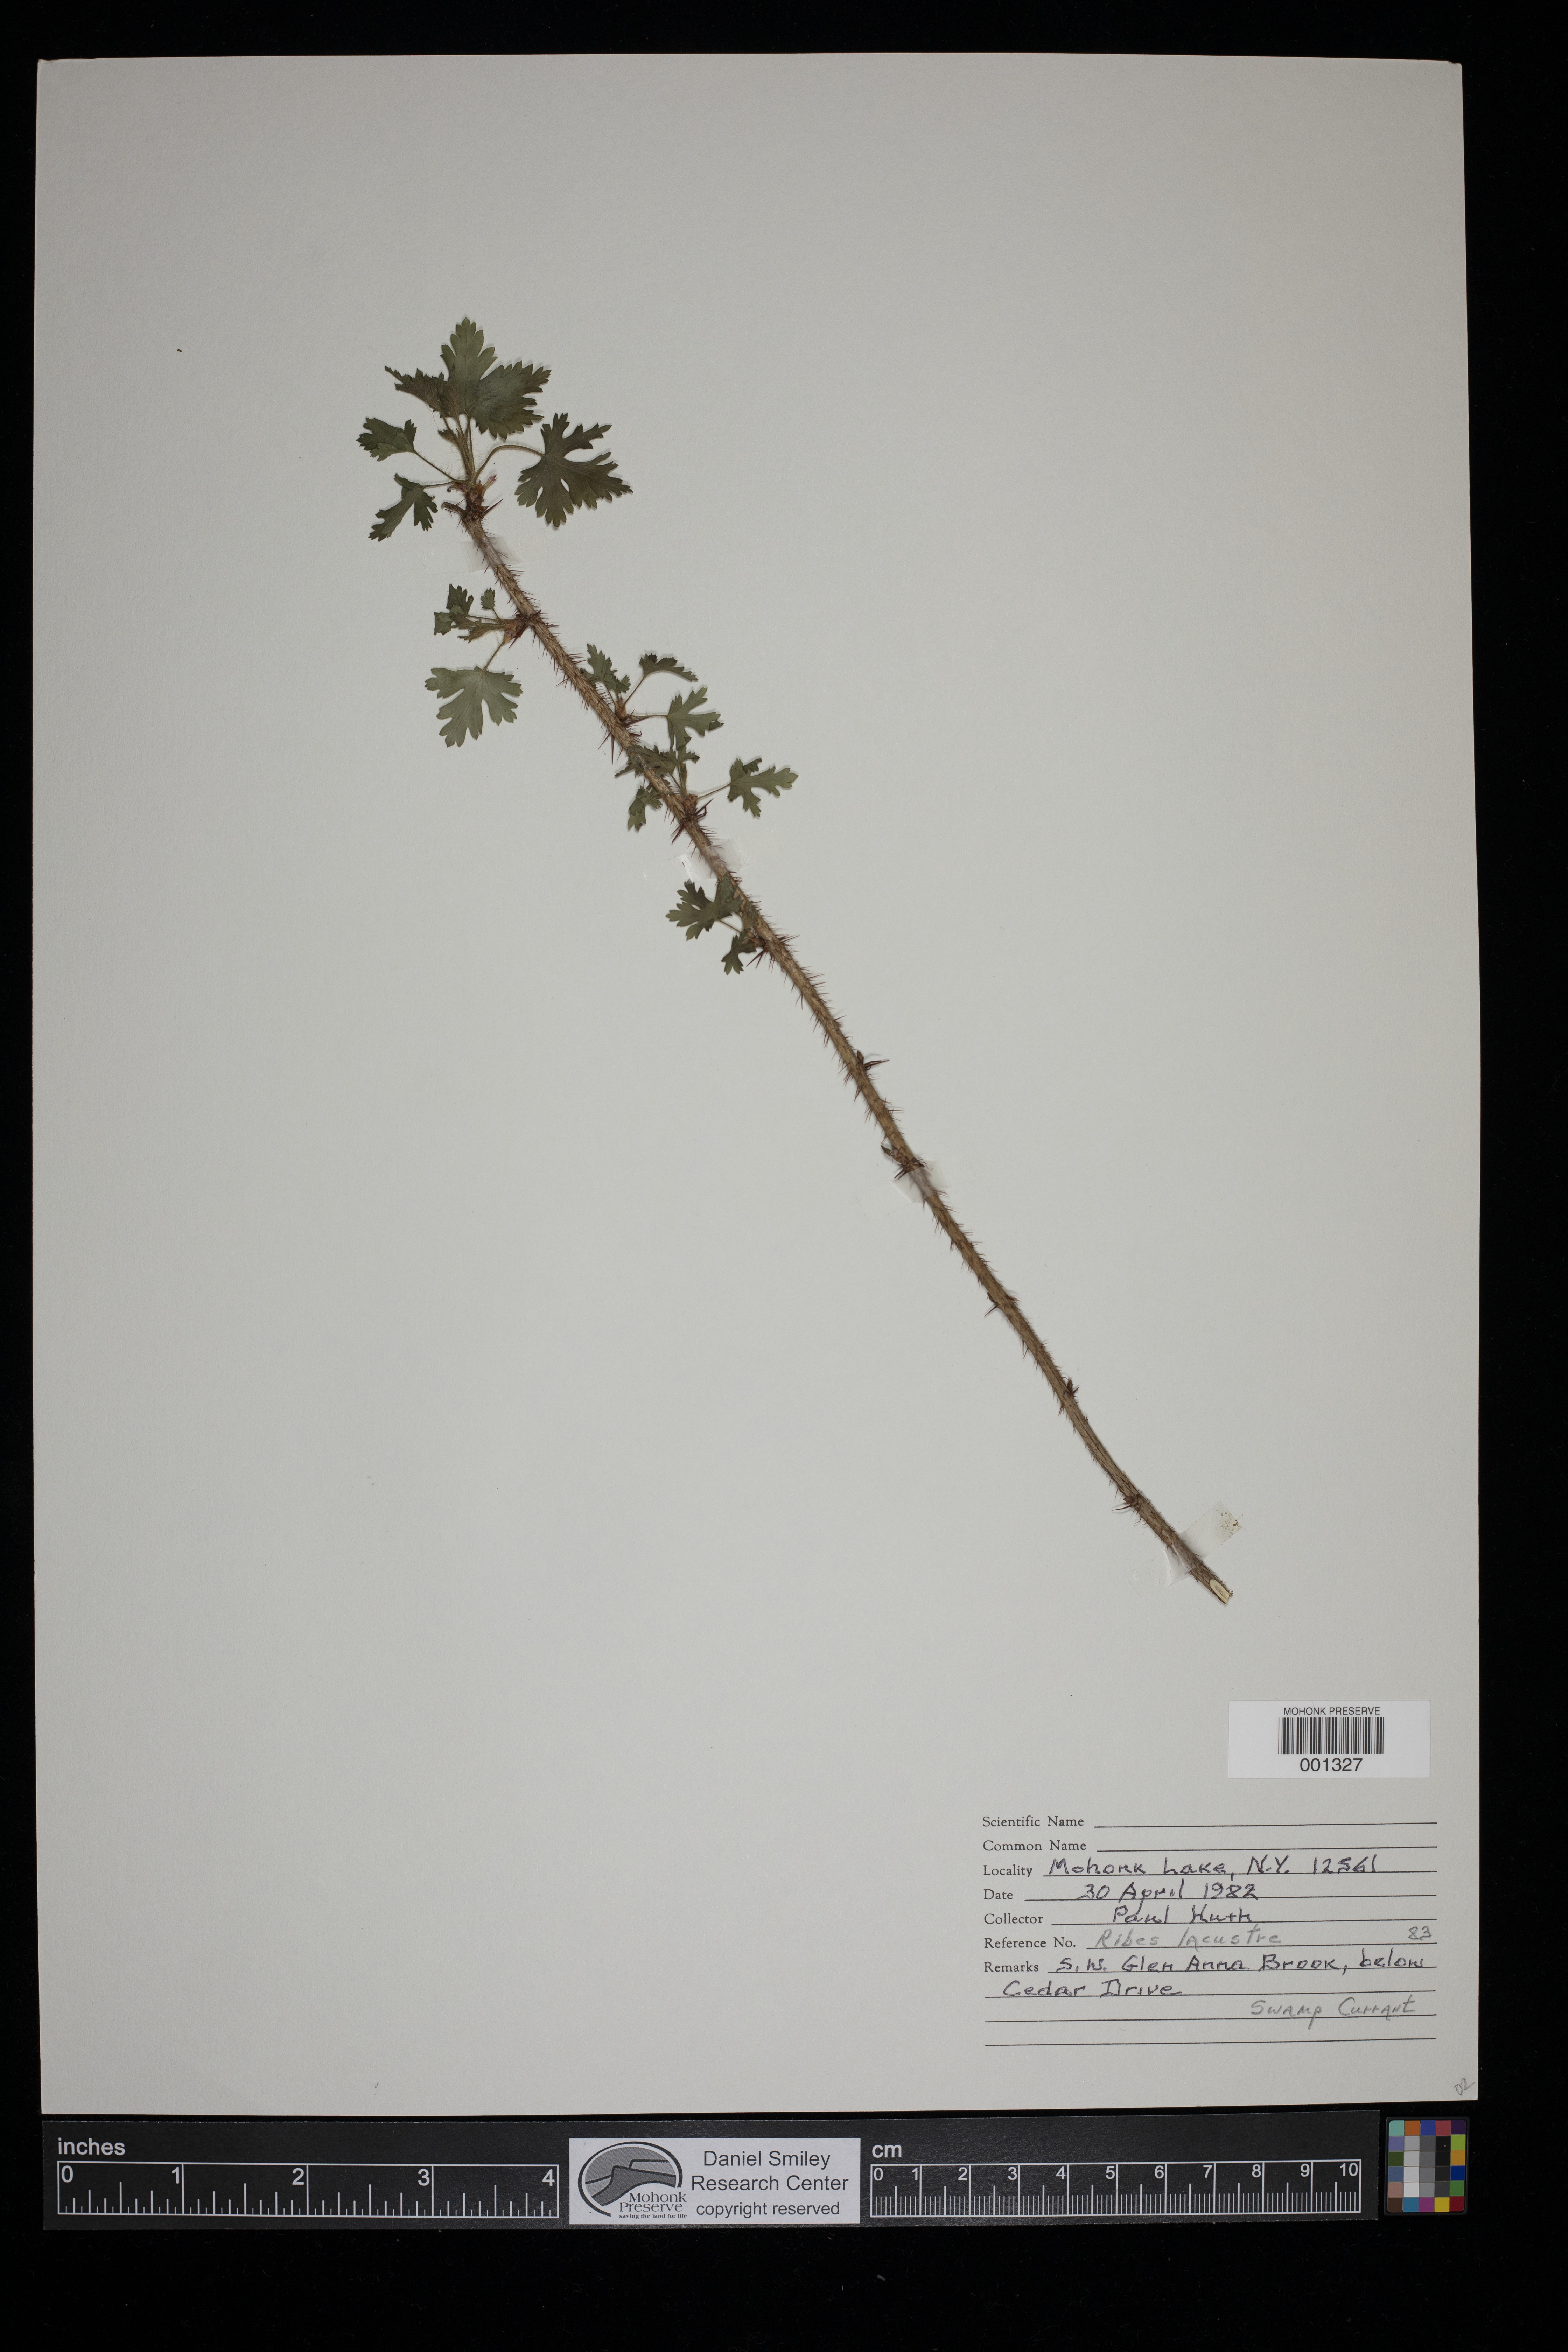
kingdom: Plantae
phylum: Tracheophyta
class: Magnoliopsida
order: Saxifragales
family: Grossulariaceae
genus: Ribes
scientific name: Ribes lacustre
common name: Black gooseberry
